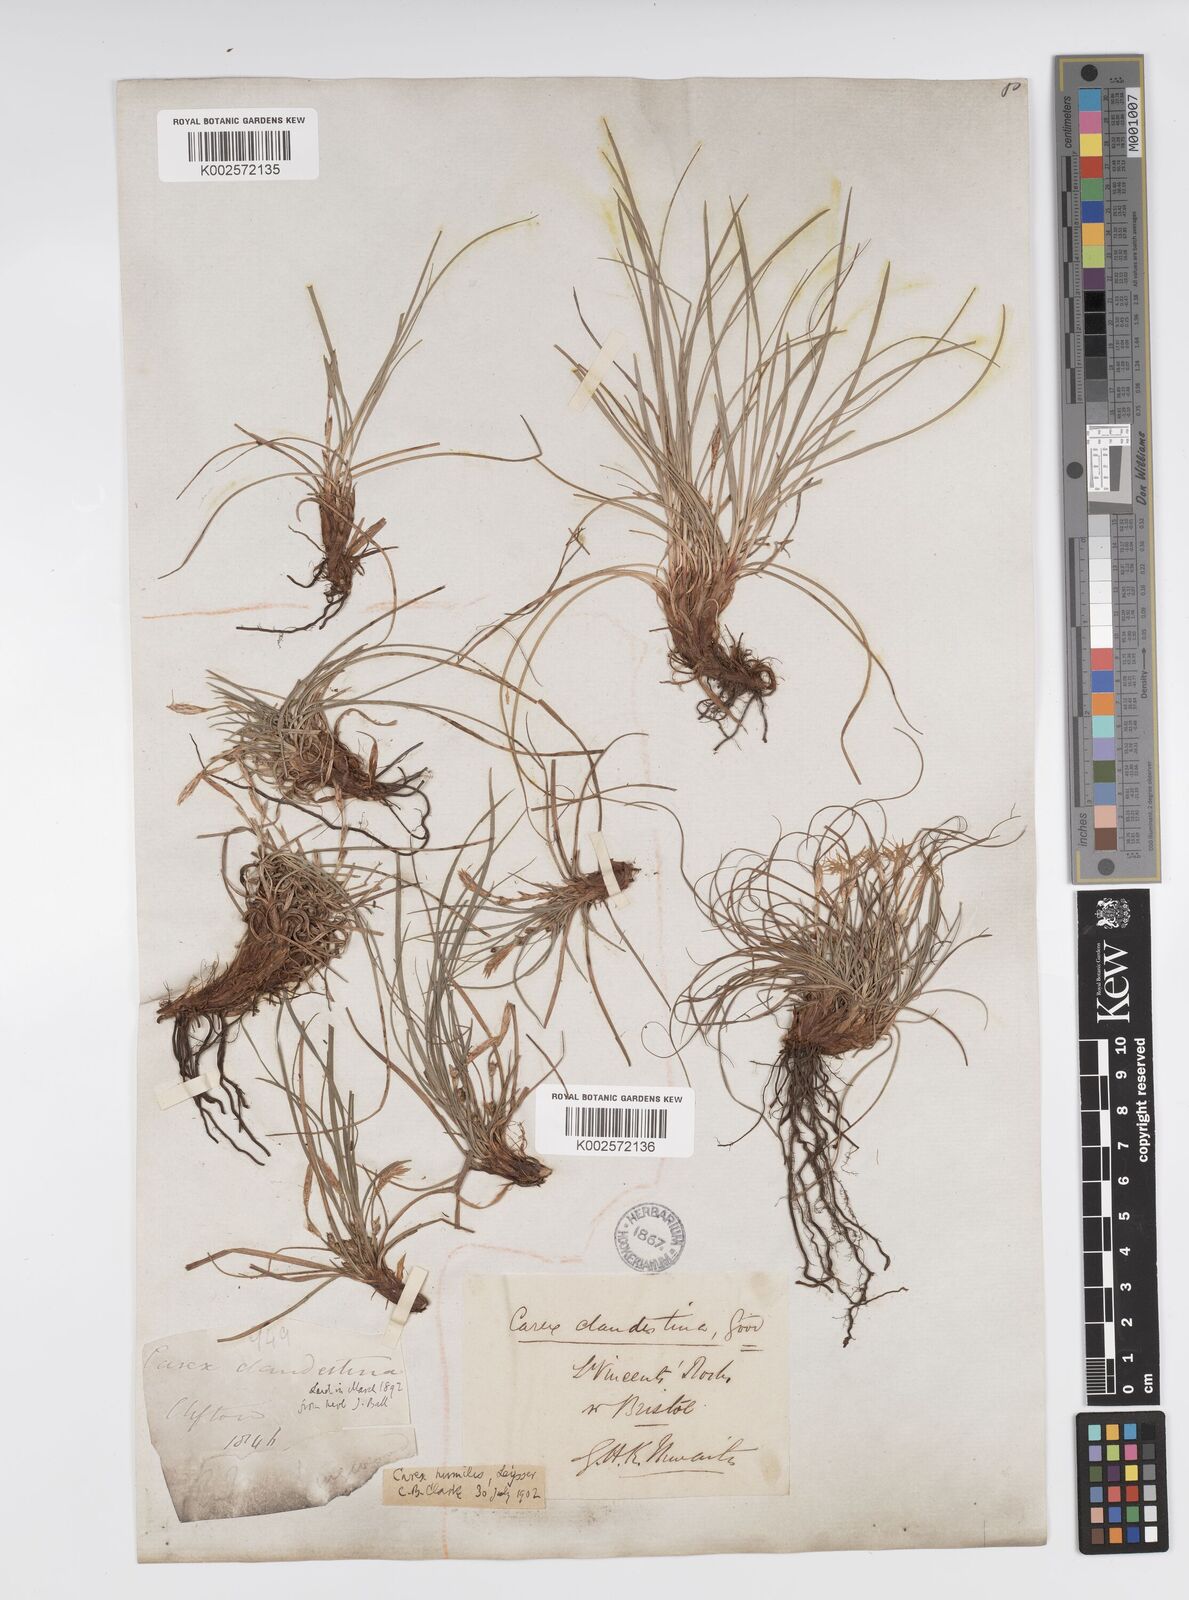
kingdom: Plantae
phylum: Tracheophyta
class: Liliopsida
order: Poales
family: Cyperaceae
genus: Carex
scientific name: Carex humilis
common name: Dwarf sedge
